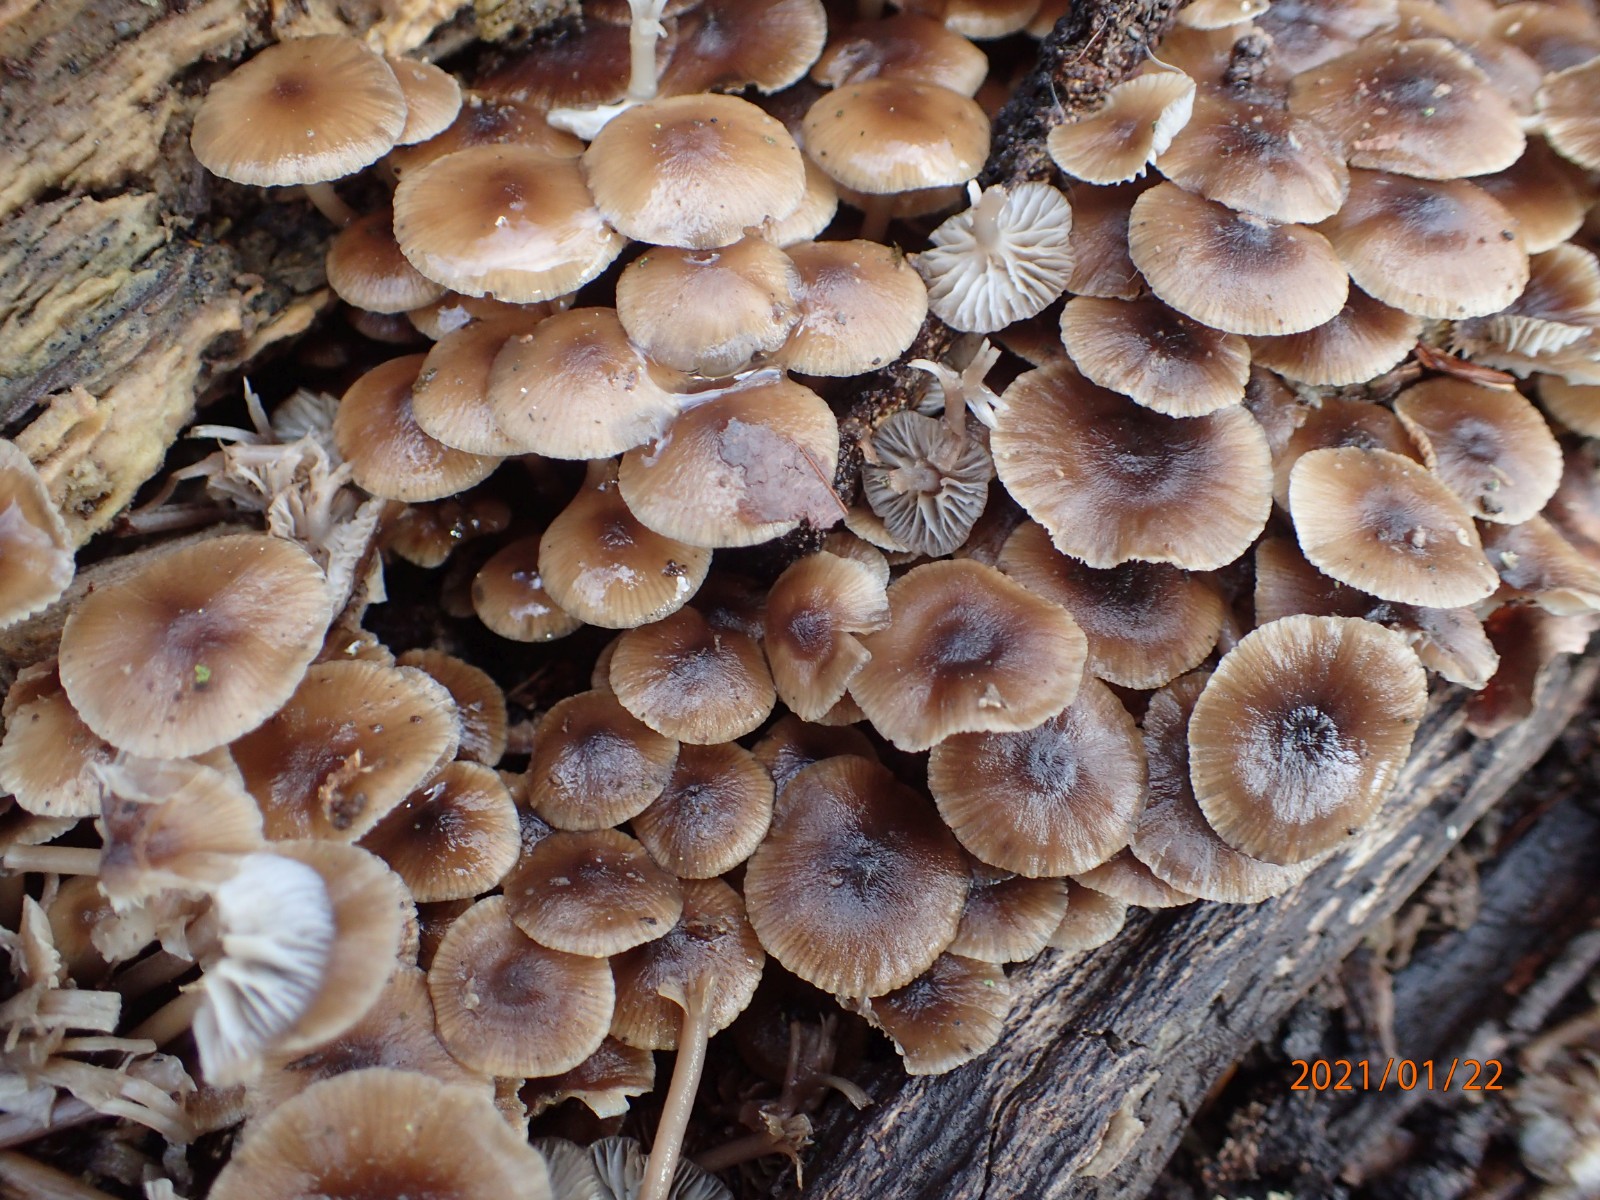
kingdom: Fungi
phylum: Basidiomycota
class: Agaricomycetes
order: Agaricales
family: Mycenaceae
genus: Mycena
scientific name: Mycena tintinnabulum
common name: vinter-huesvamp
